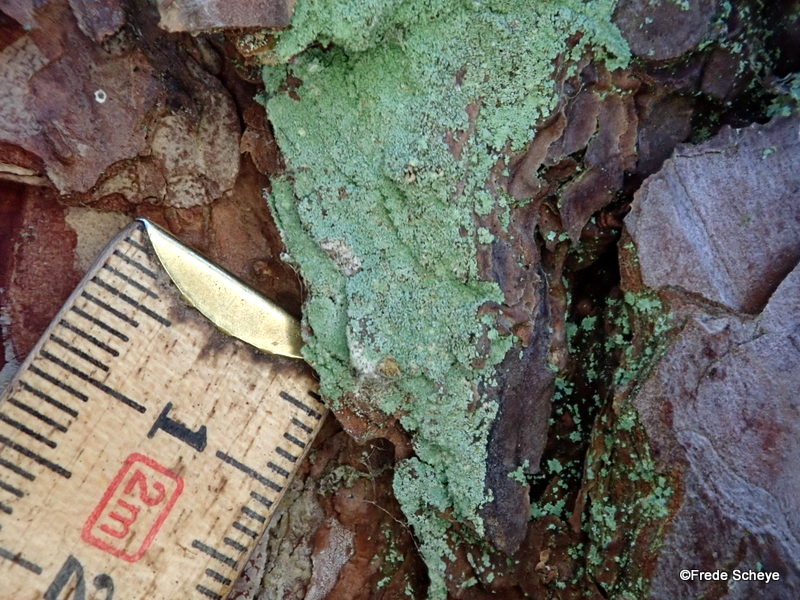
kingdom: Fungi
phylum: Ascomycota
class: Lecanoromycetes
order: Lecanorales
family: Stereocaulaceae
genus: Lepraria
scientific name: Lepraria incana
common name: almindelig støvlav
